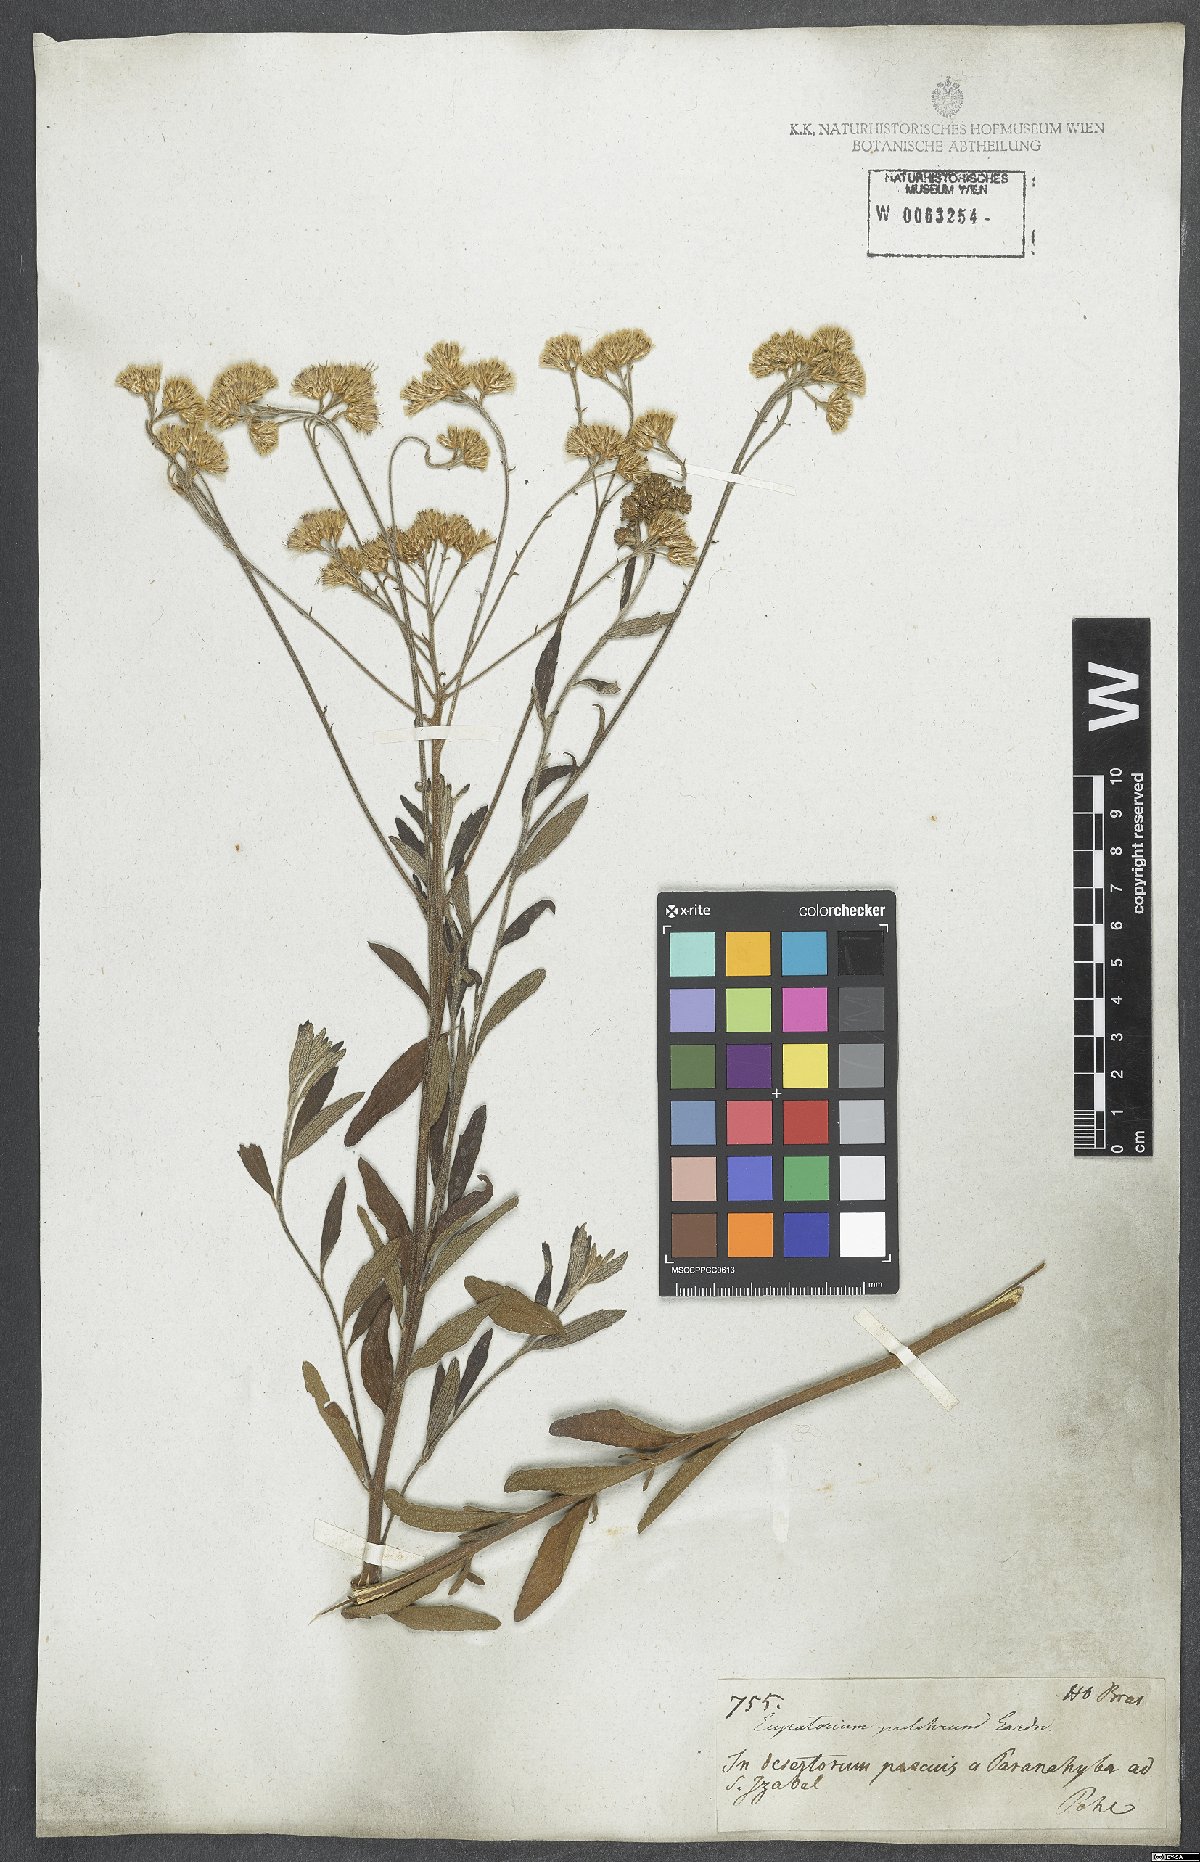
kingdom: Plantae
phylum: Tracheophyta
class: Magnoliopsida
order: Asterales
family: Asteraceae
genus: Chromolaena
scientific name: Chromolaena stachyophylla
